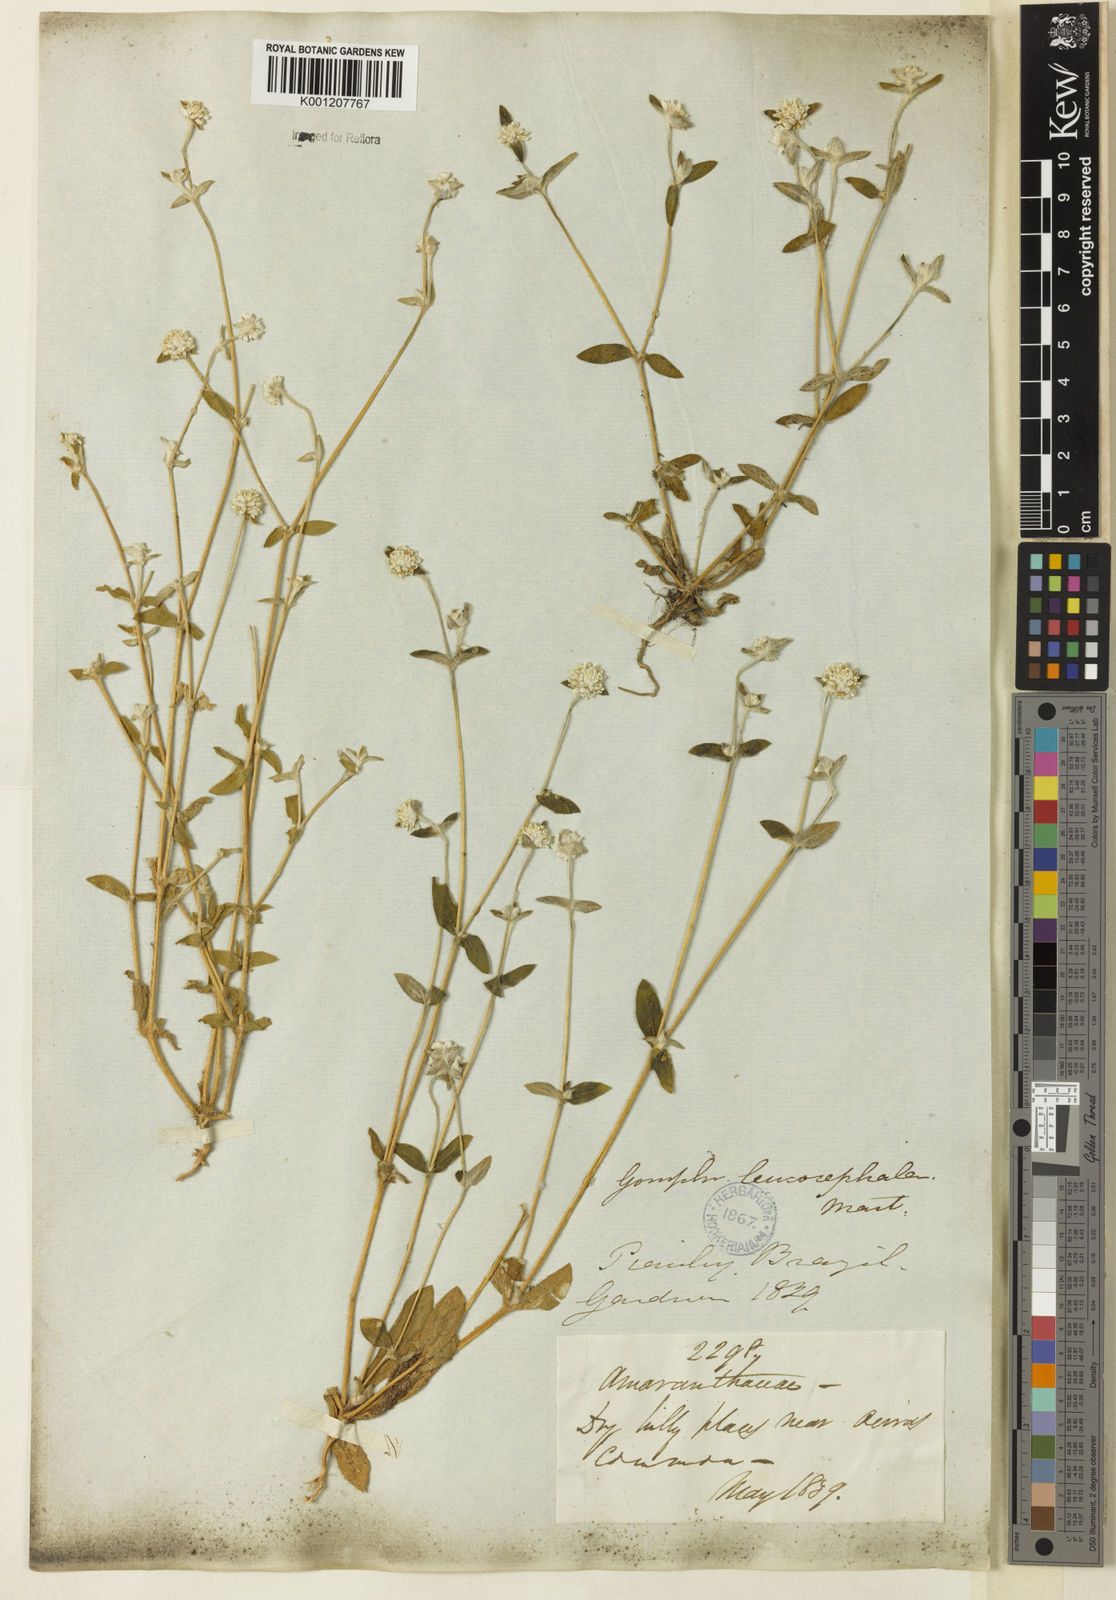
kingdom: Plantae
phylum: Tracheophyta
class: Magnoliopsida
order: Caryophyllales
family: Amaranthaceae
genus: Gomphrena
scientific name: Gomphrena leucocephala
